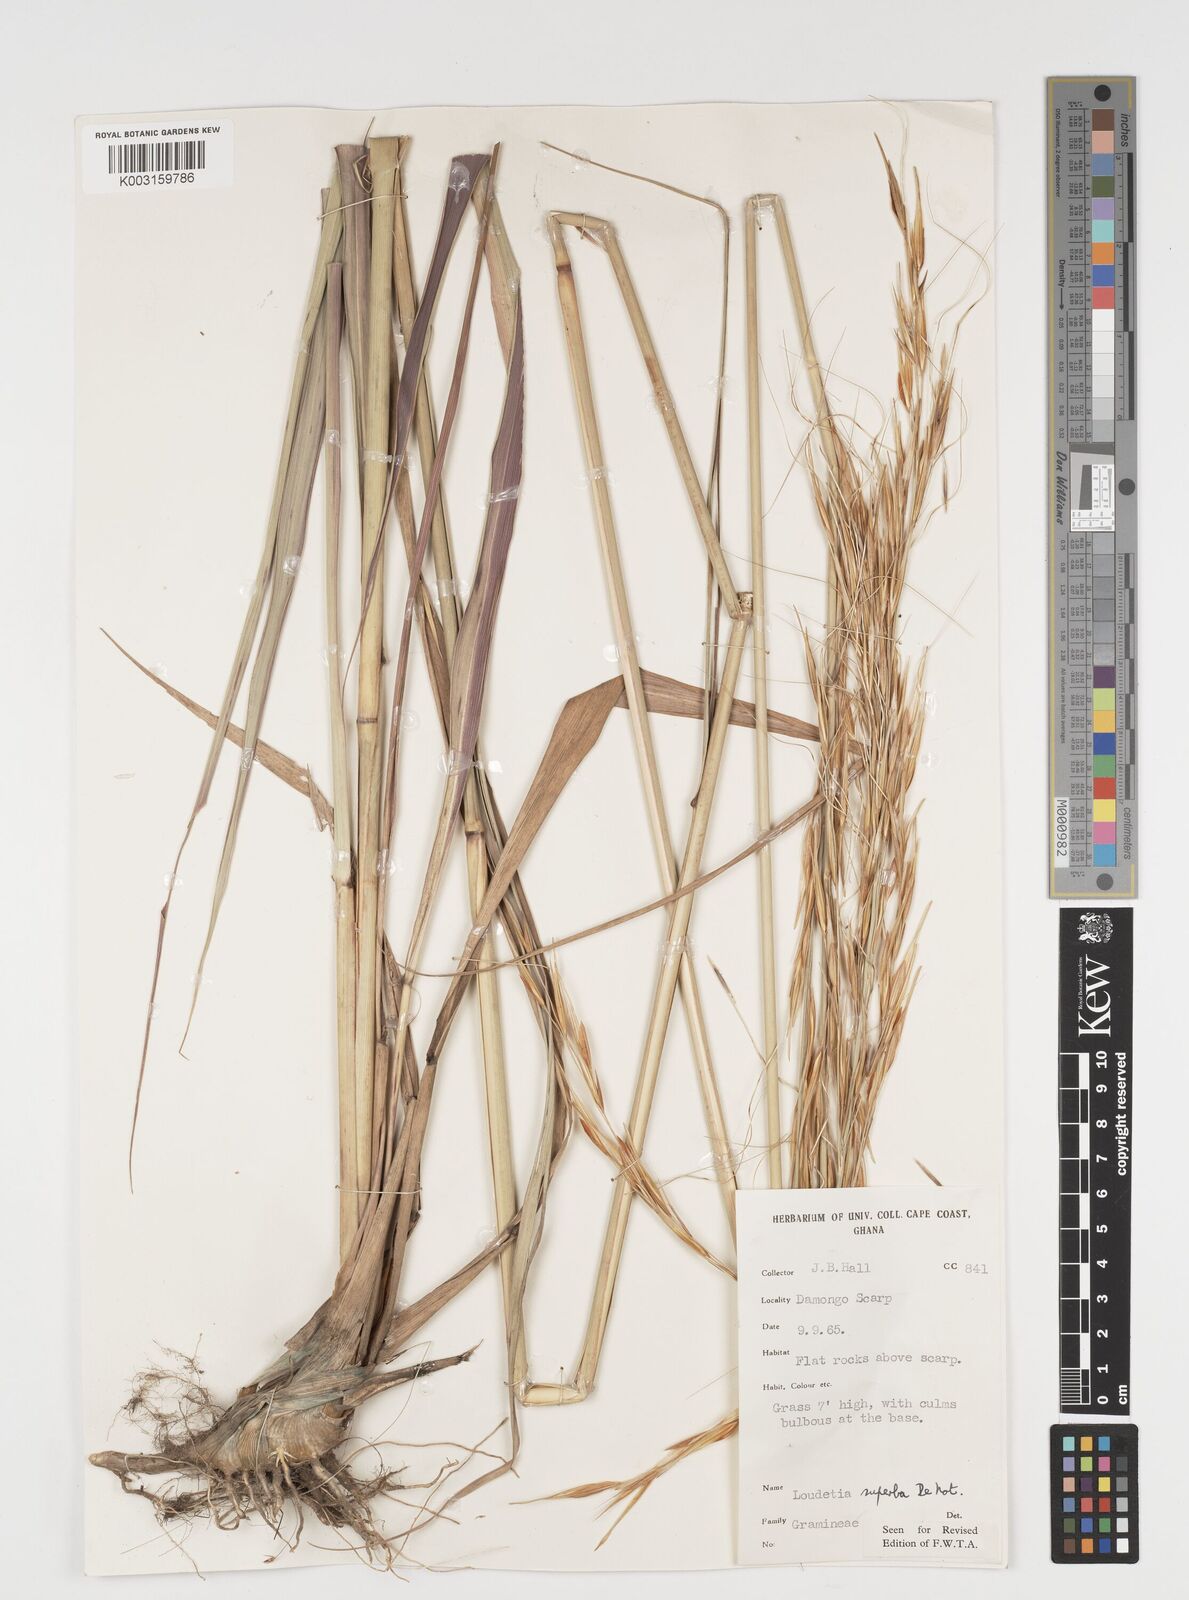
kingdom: Plantae
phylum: Tracheophyta
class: Liliopsida
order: Poales
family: Poaceae
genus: Tristachya
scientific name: Tristachya superba
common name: Giant trident grass
